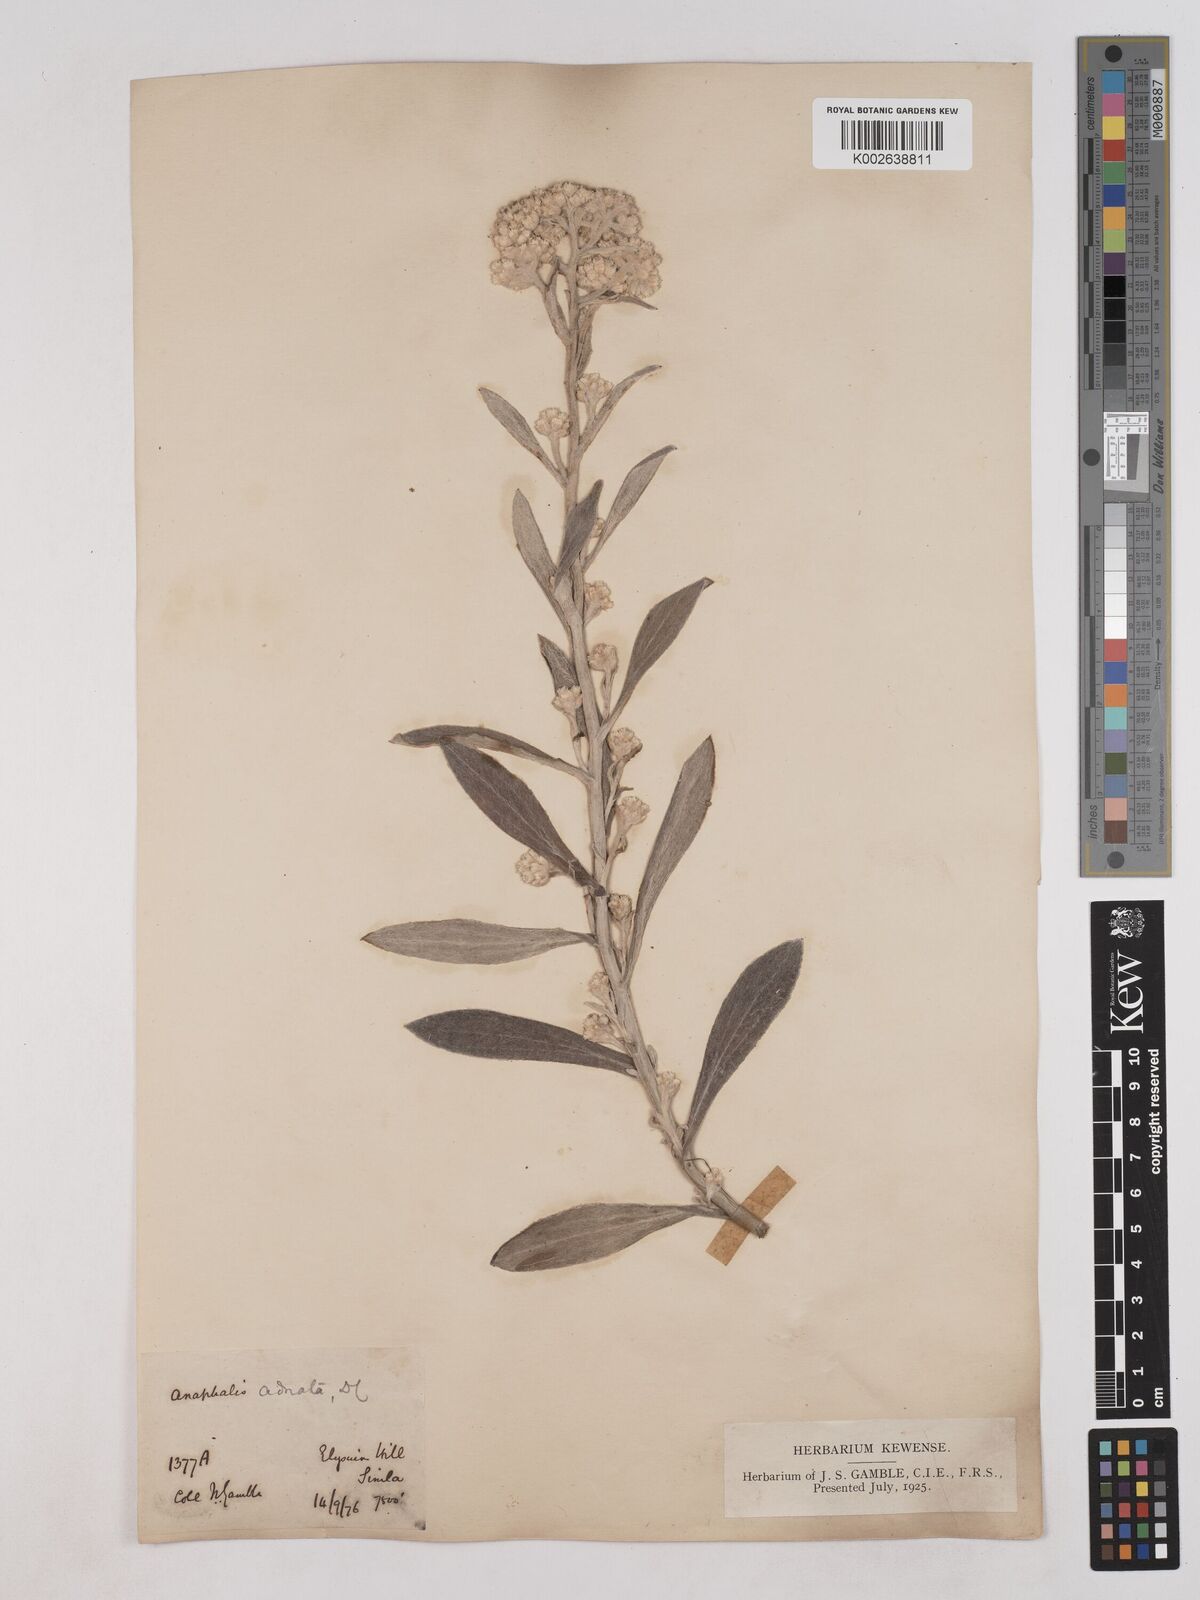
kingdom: Plantae
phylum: Tracheophyta
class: Magnoliopsida
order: Asterales
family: Asteraceae
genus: Pseudognaphalium
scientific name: Pseudognaphalium adnatum
